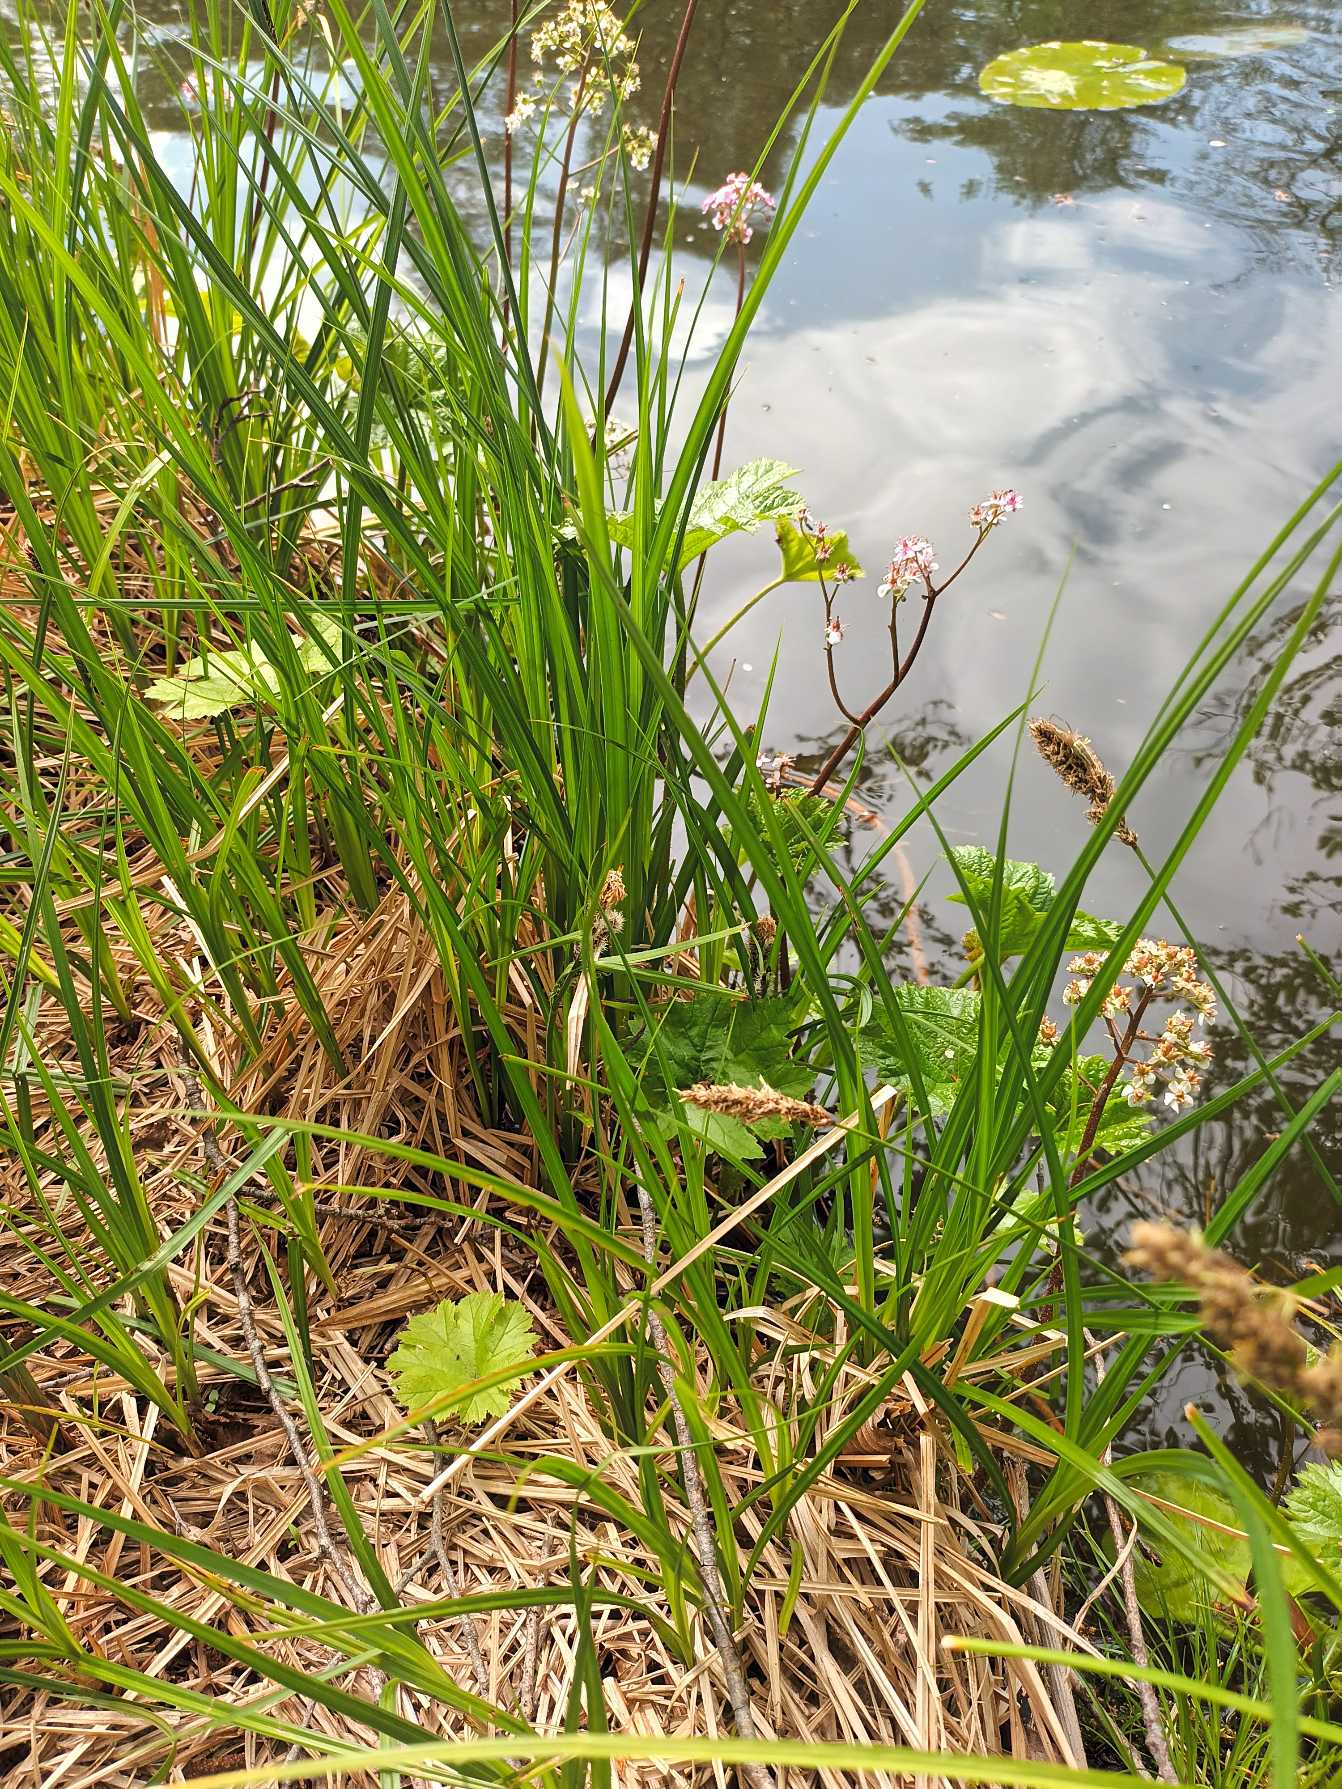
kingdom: Plantae
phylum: Tracheophyta
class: Magnoliopsida
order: Saxifragales
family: Saxifragaceae
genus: Darmera
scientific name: Darmera peltata
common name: Skjoldblad
